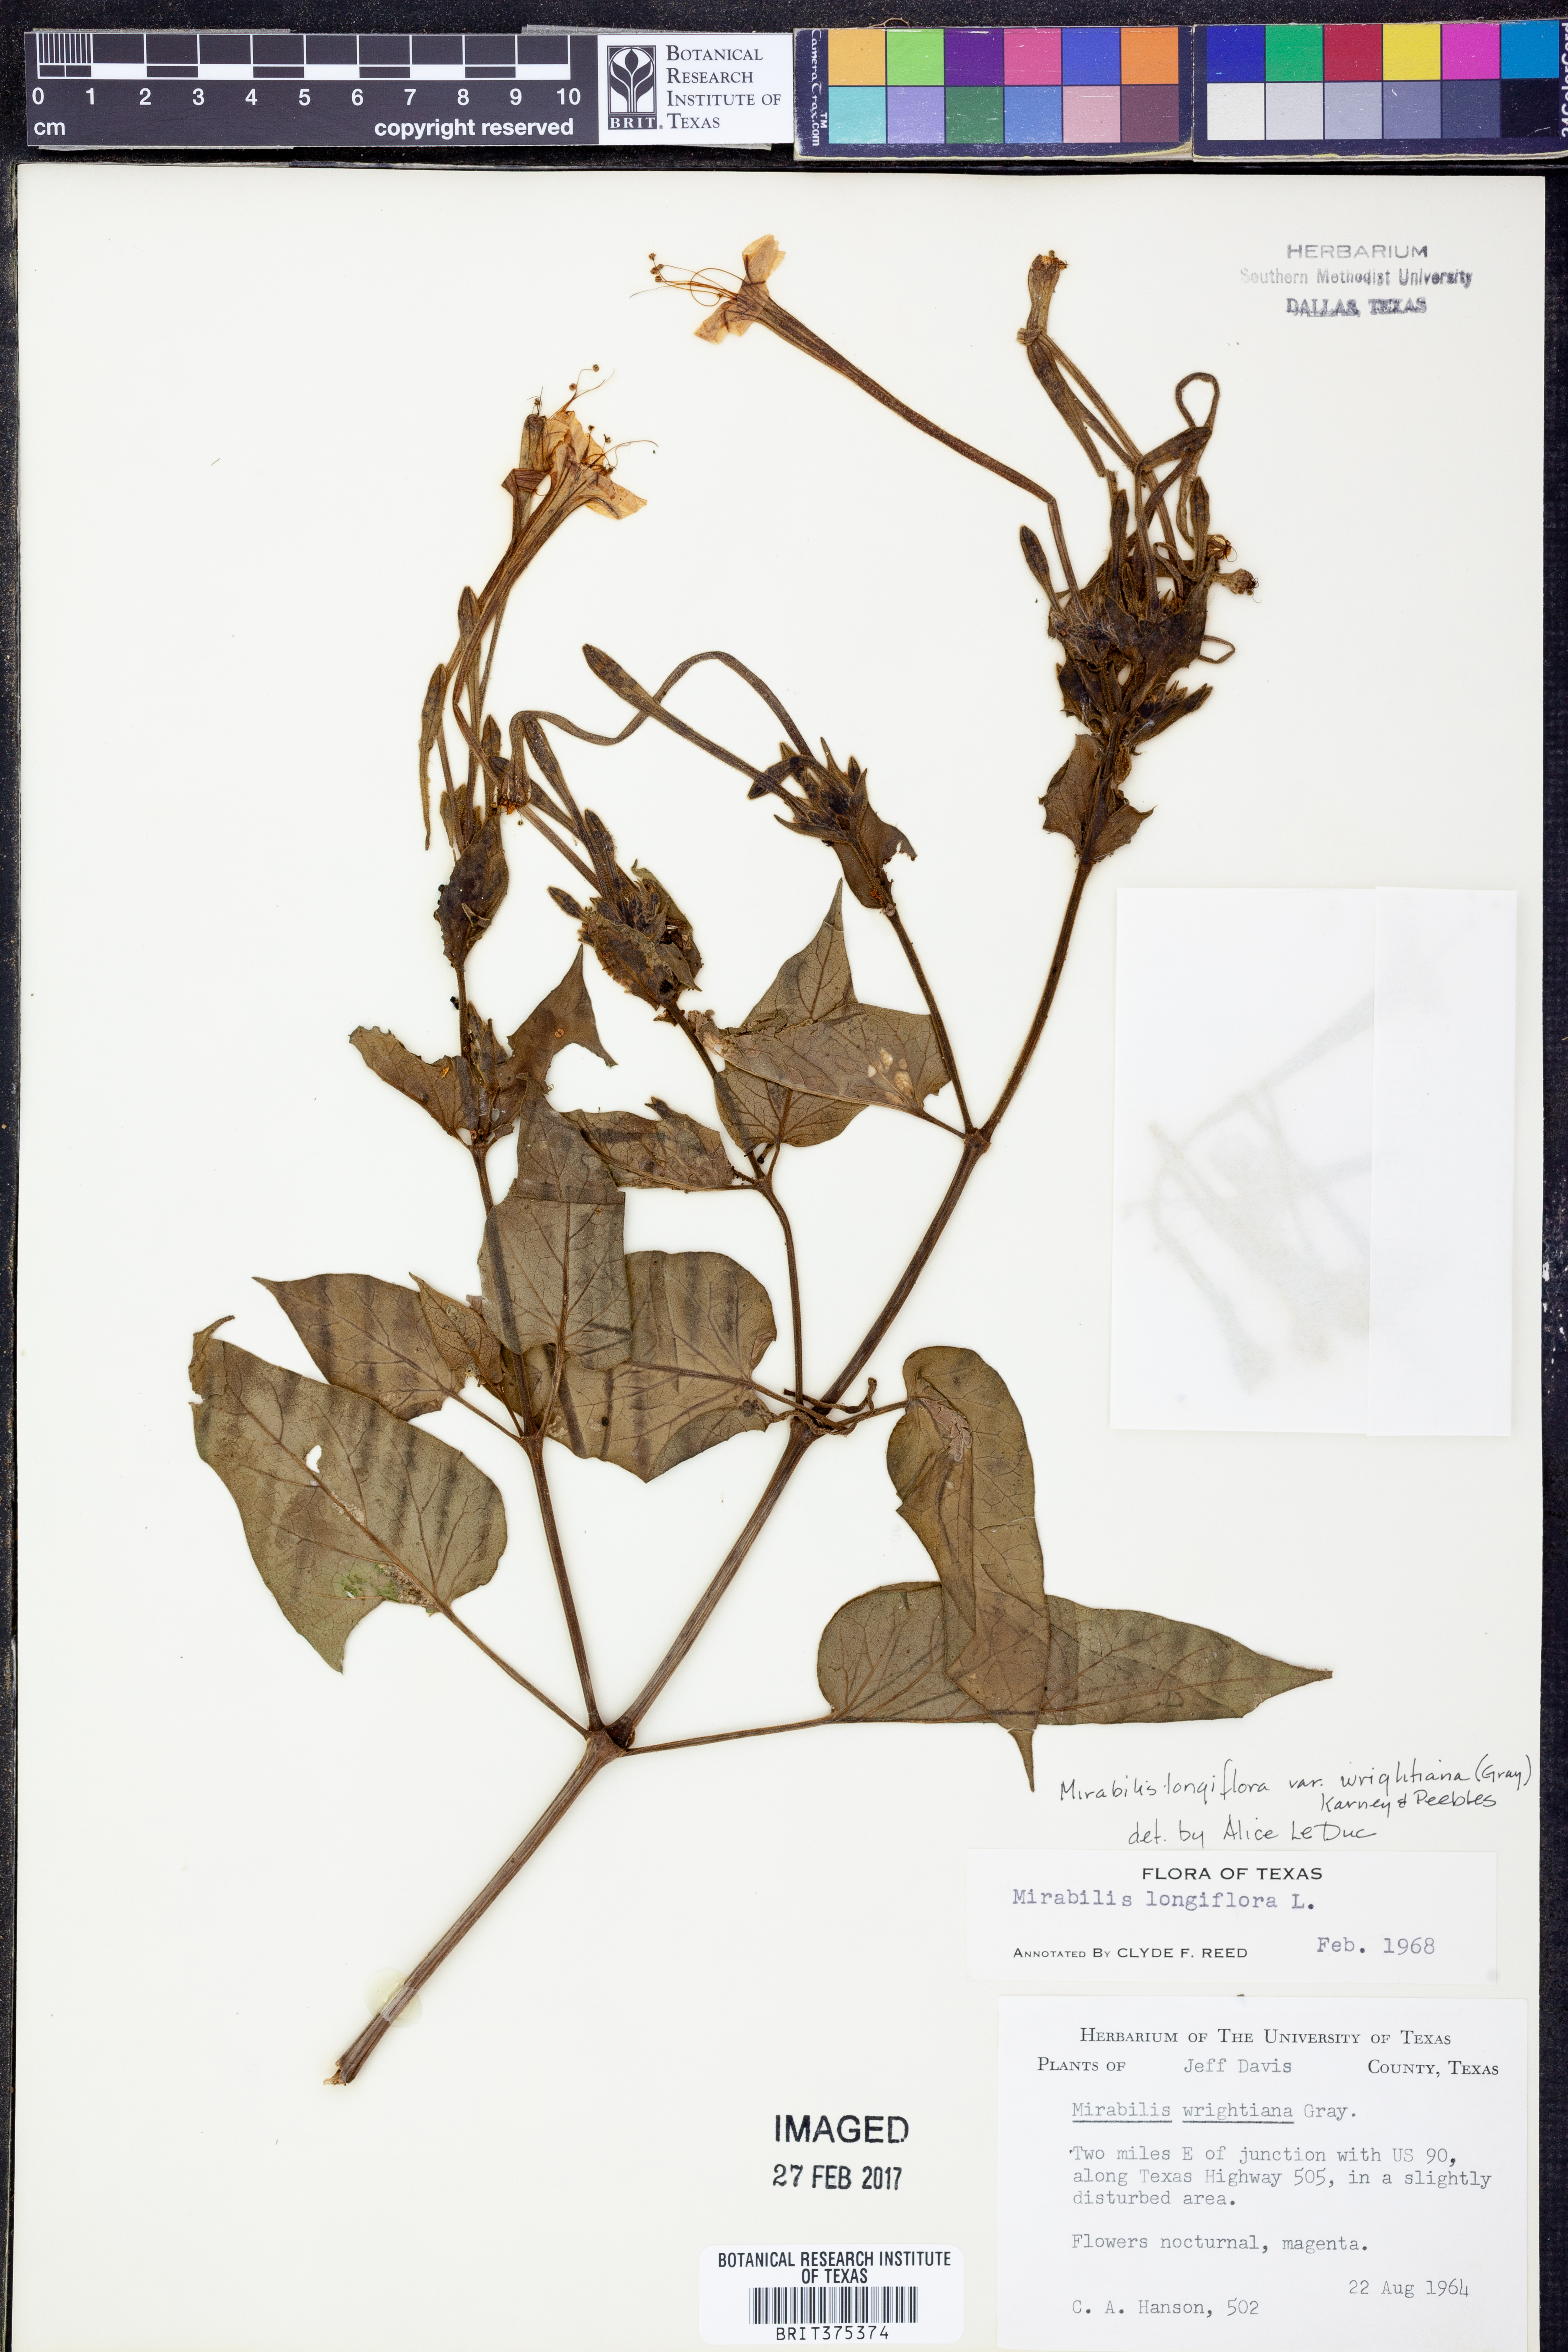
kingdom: Plantae
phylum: Tracheophyta
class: Magnoliopsida
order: Caryophyllales
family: Nyctaginaceae
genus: Mirabilis
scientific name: Mirabilis longiflora
